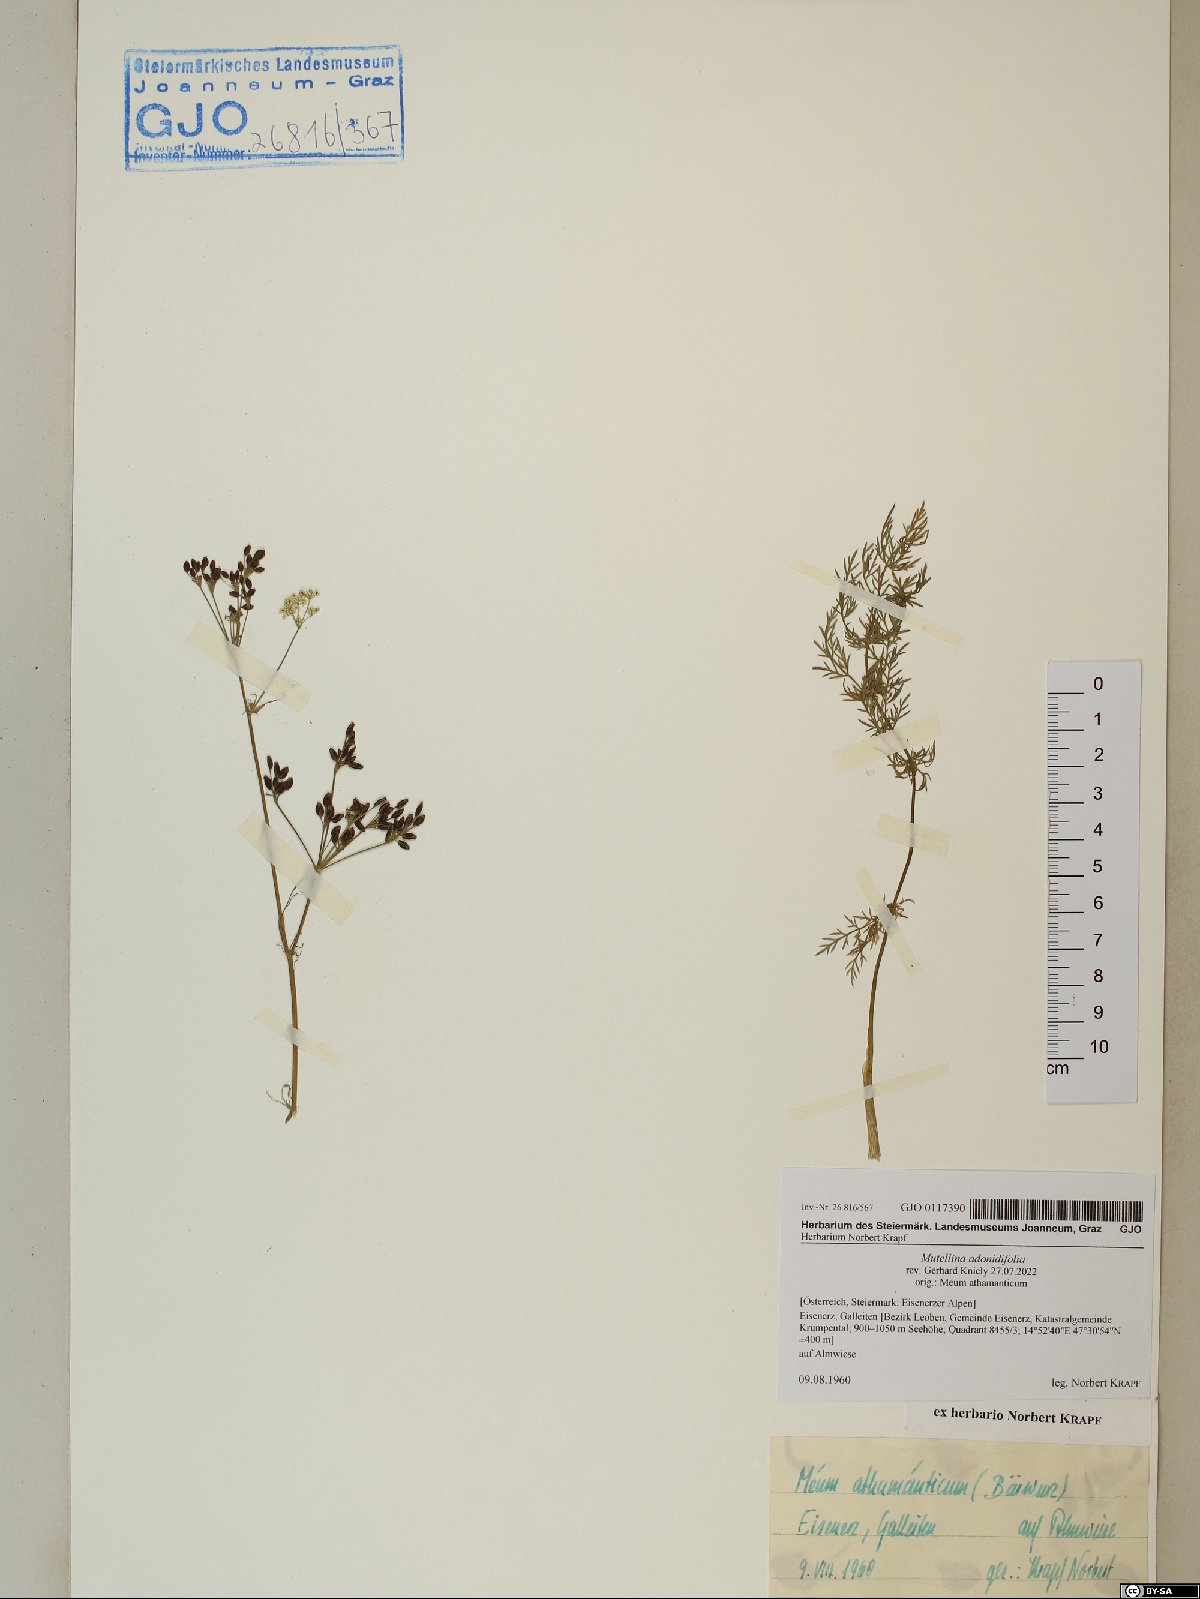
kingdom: Plantae
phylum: Tracheophyta
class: Magnoliopsida
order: Apiales
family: Apiaceae
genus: Mutellina
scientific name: Mutellina adonidifolia
